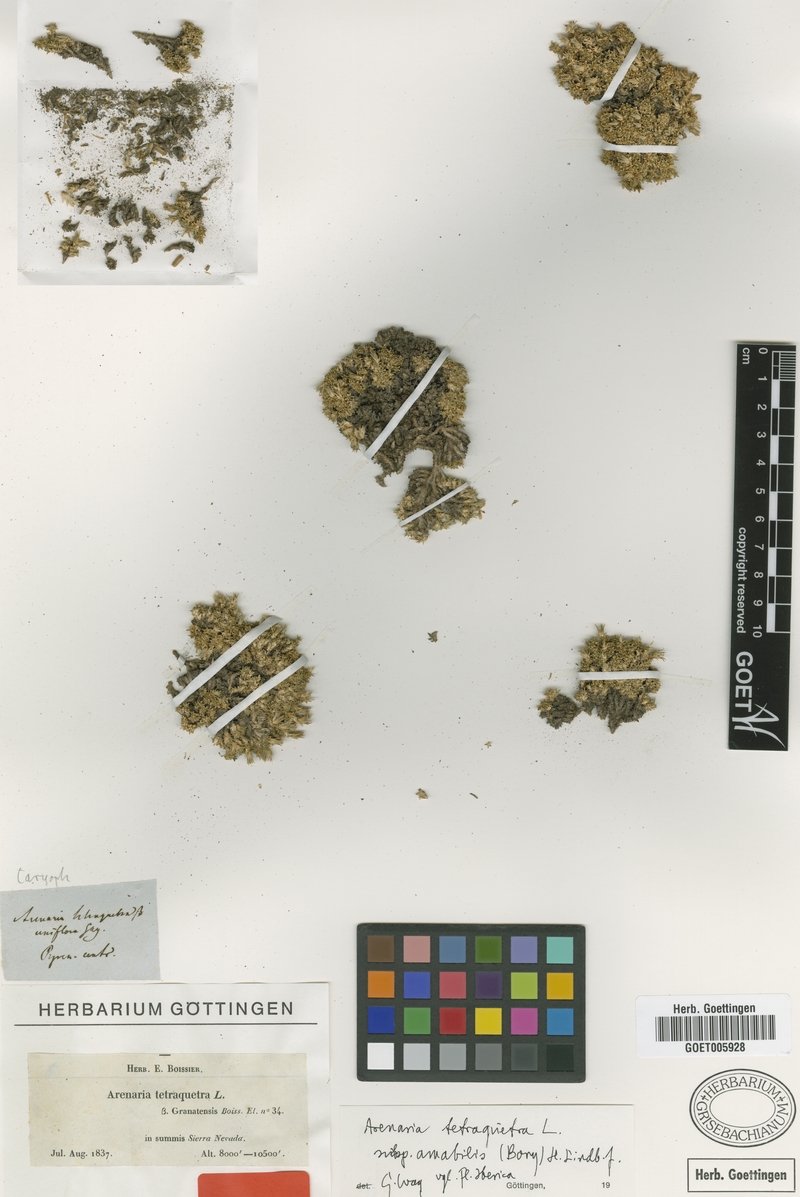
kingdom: Plantae
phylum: Tracheophyta
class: Magnoliopsida
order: Caryophyllales
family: Caryophyllaceae
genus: Arenaria
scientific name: Arenaria tetraquetra
